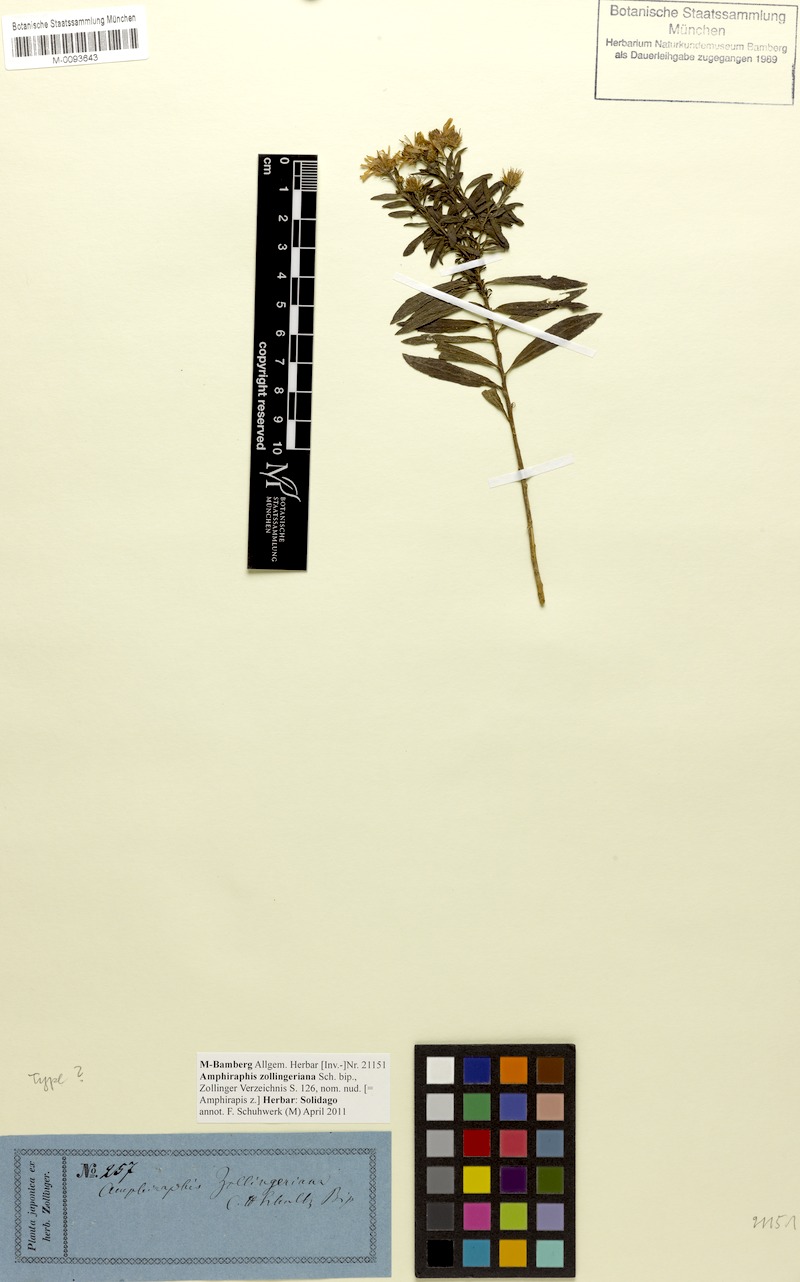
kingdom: Plantae
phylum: Tracheophyta
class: Magnoliopsida
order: Asterales
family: Asteraceae
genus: Symphyotrichum
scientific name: Symphyotrichum
